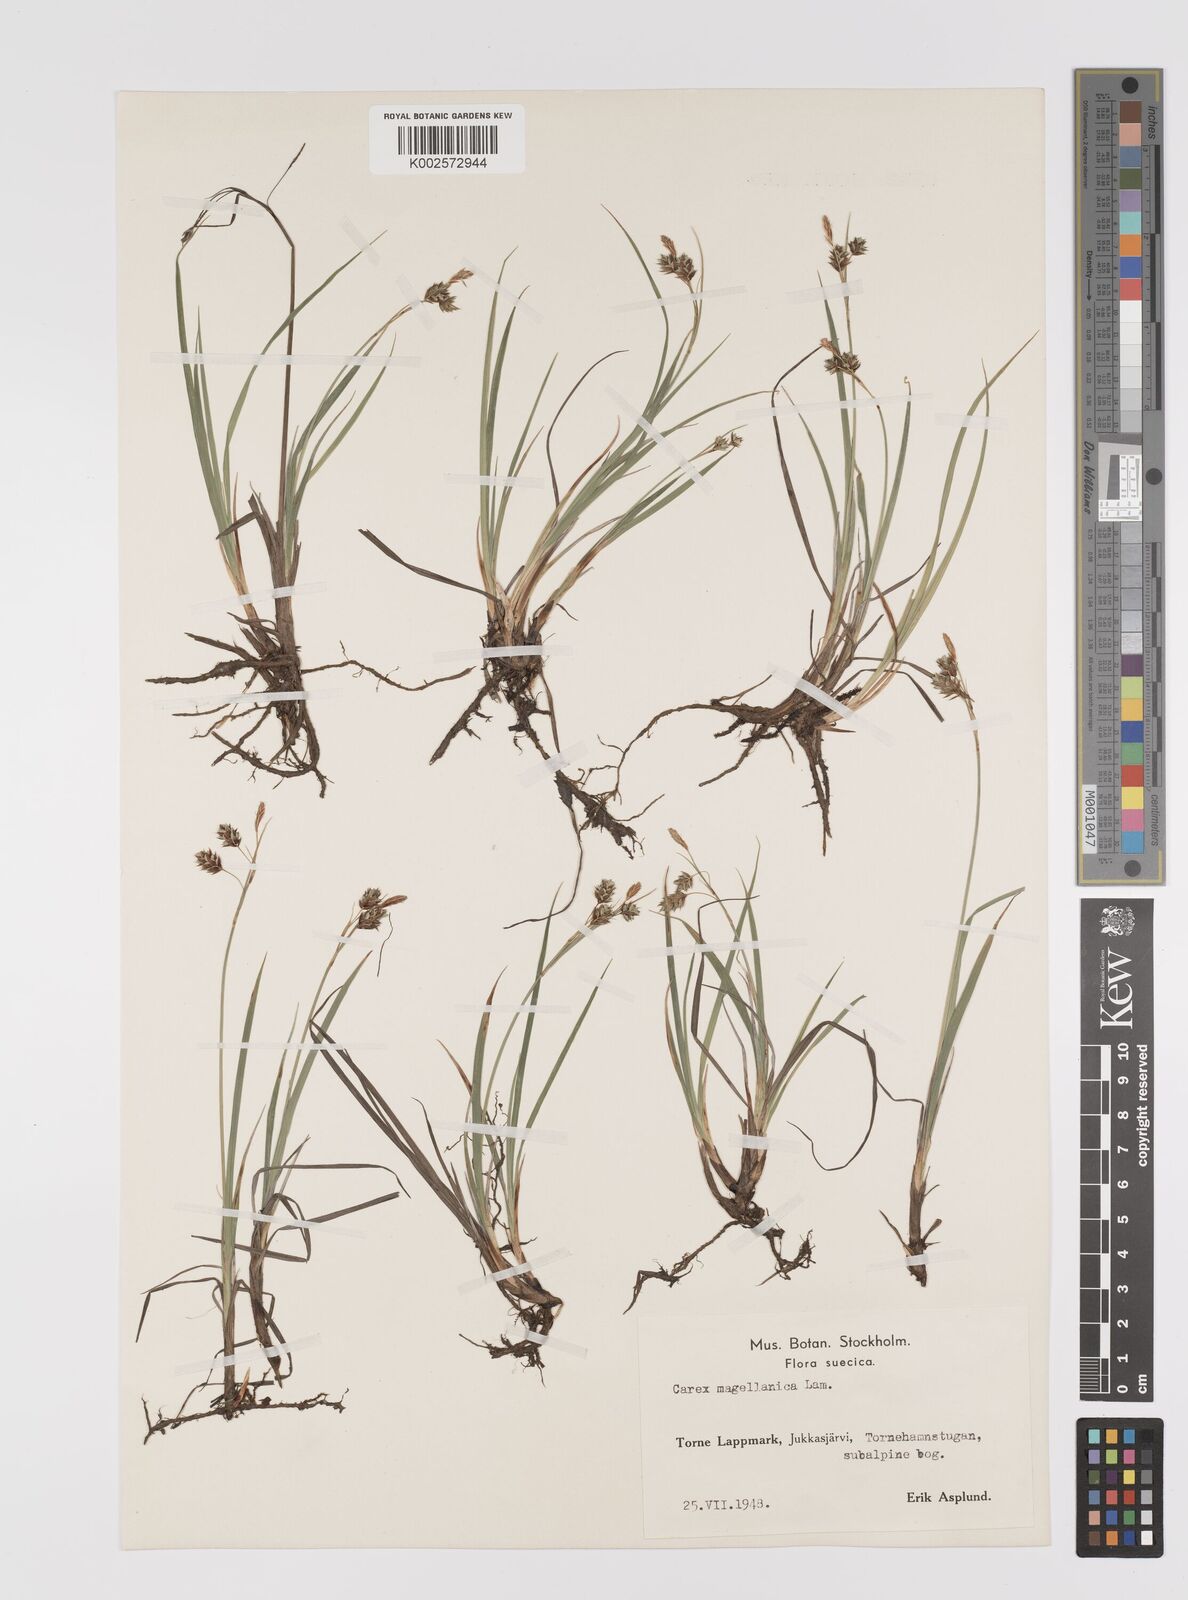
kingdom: Plantae
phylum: Tracheophyta
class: Liliopsida
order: Poales
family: Cyperaceae
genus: Carex
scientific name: Carex magellanica
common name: Bog sedge
